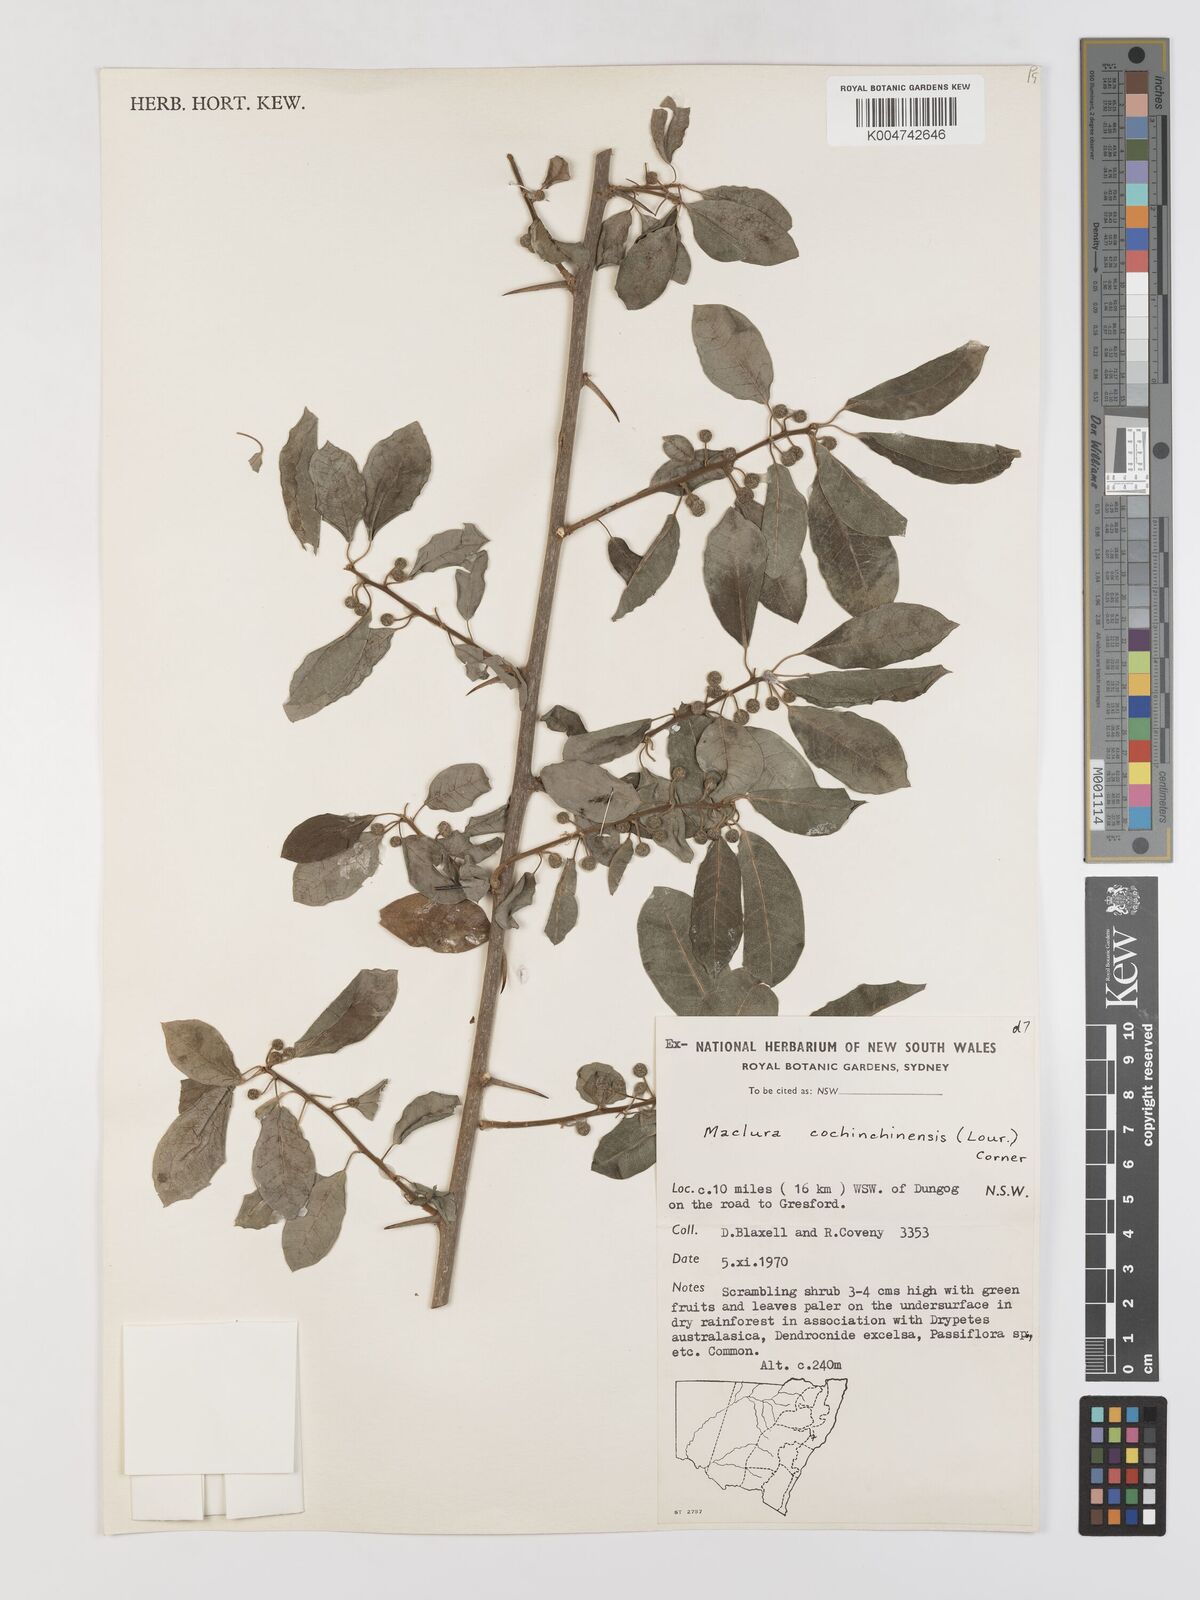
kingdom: Plantae
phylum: Tracheophyta
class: Magnoliopsida
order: Rosales
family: Moraceae
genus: Maclura
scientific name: Maclura cochinchinensis
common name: Cockspurthorn
